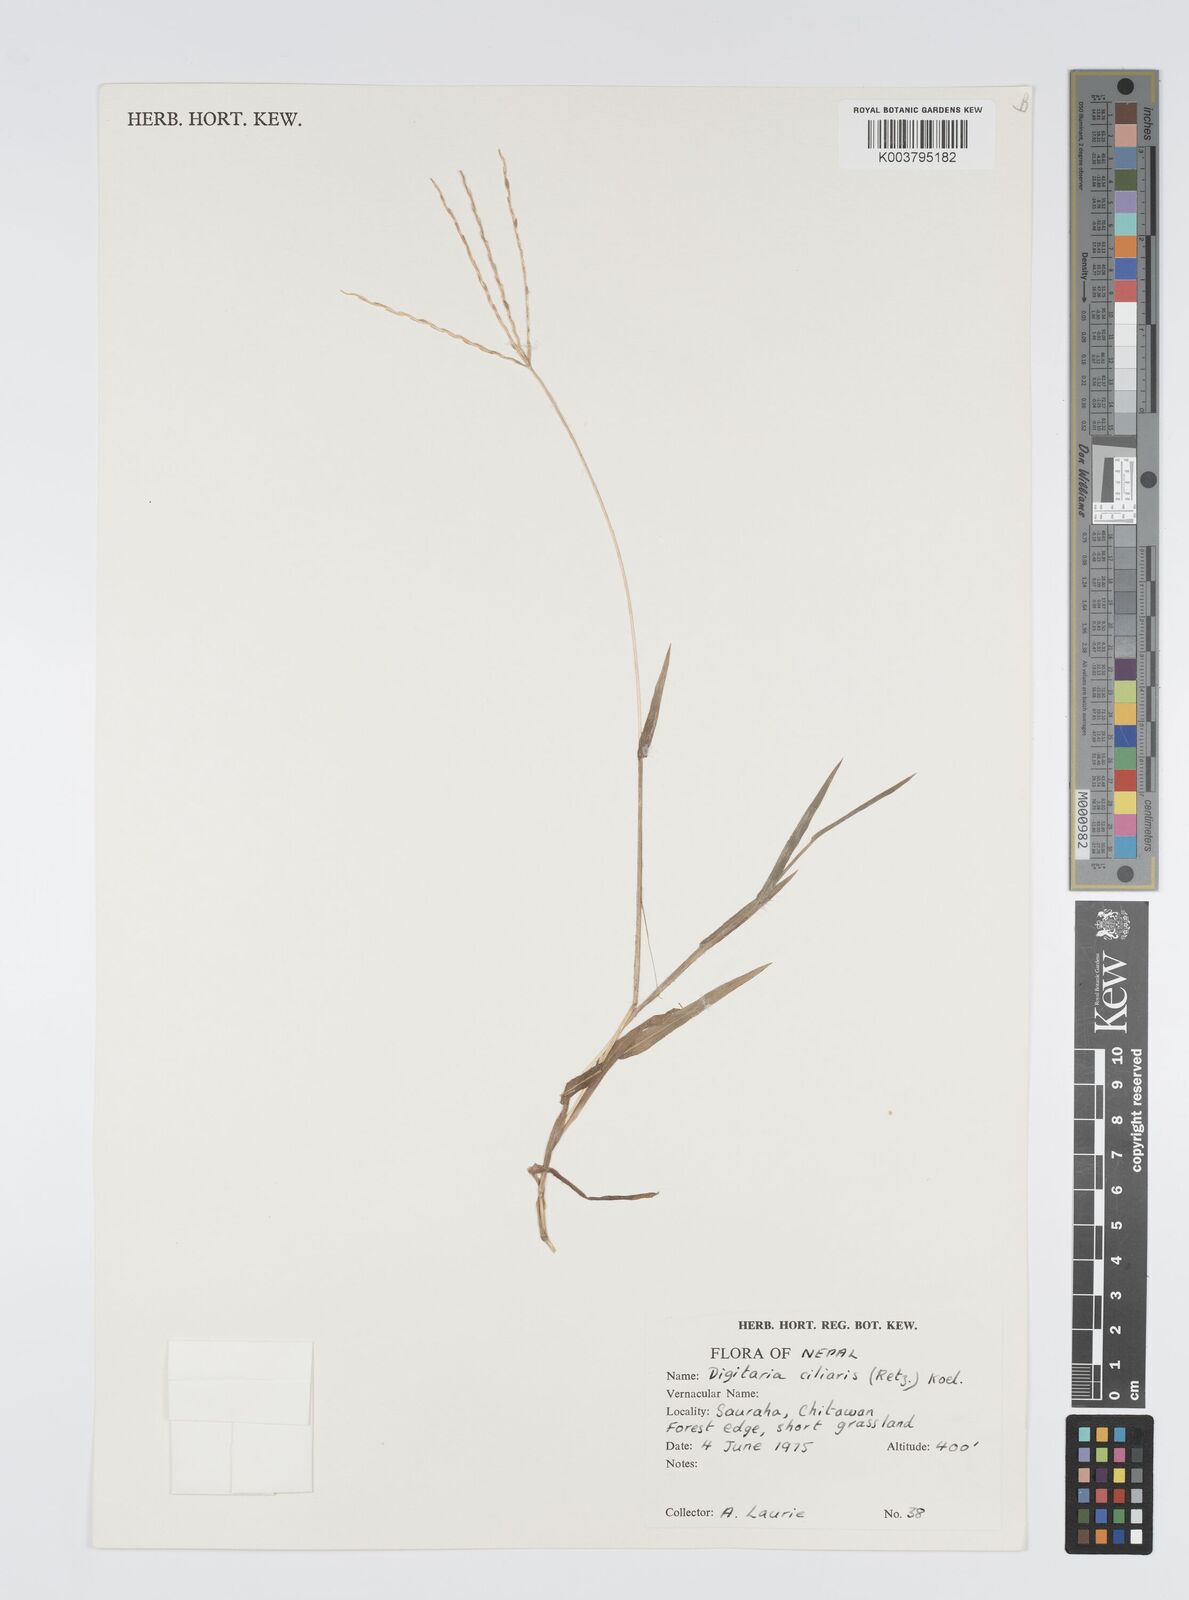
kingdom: Plantae
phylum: Tracheophyta
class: Liliopsida
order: Poales
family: Poaceae
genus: Digitaria
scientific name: Digitaria ciliaris
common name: Tropical finger-grass
